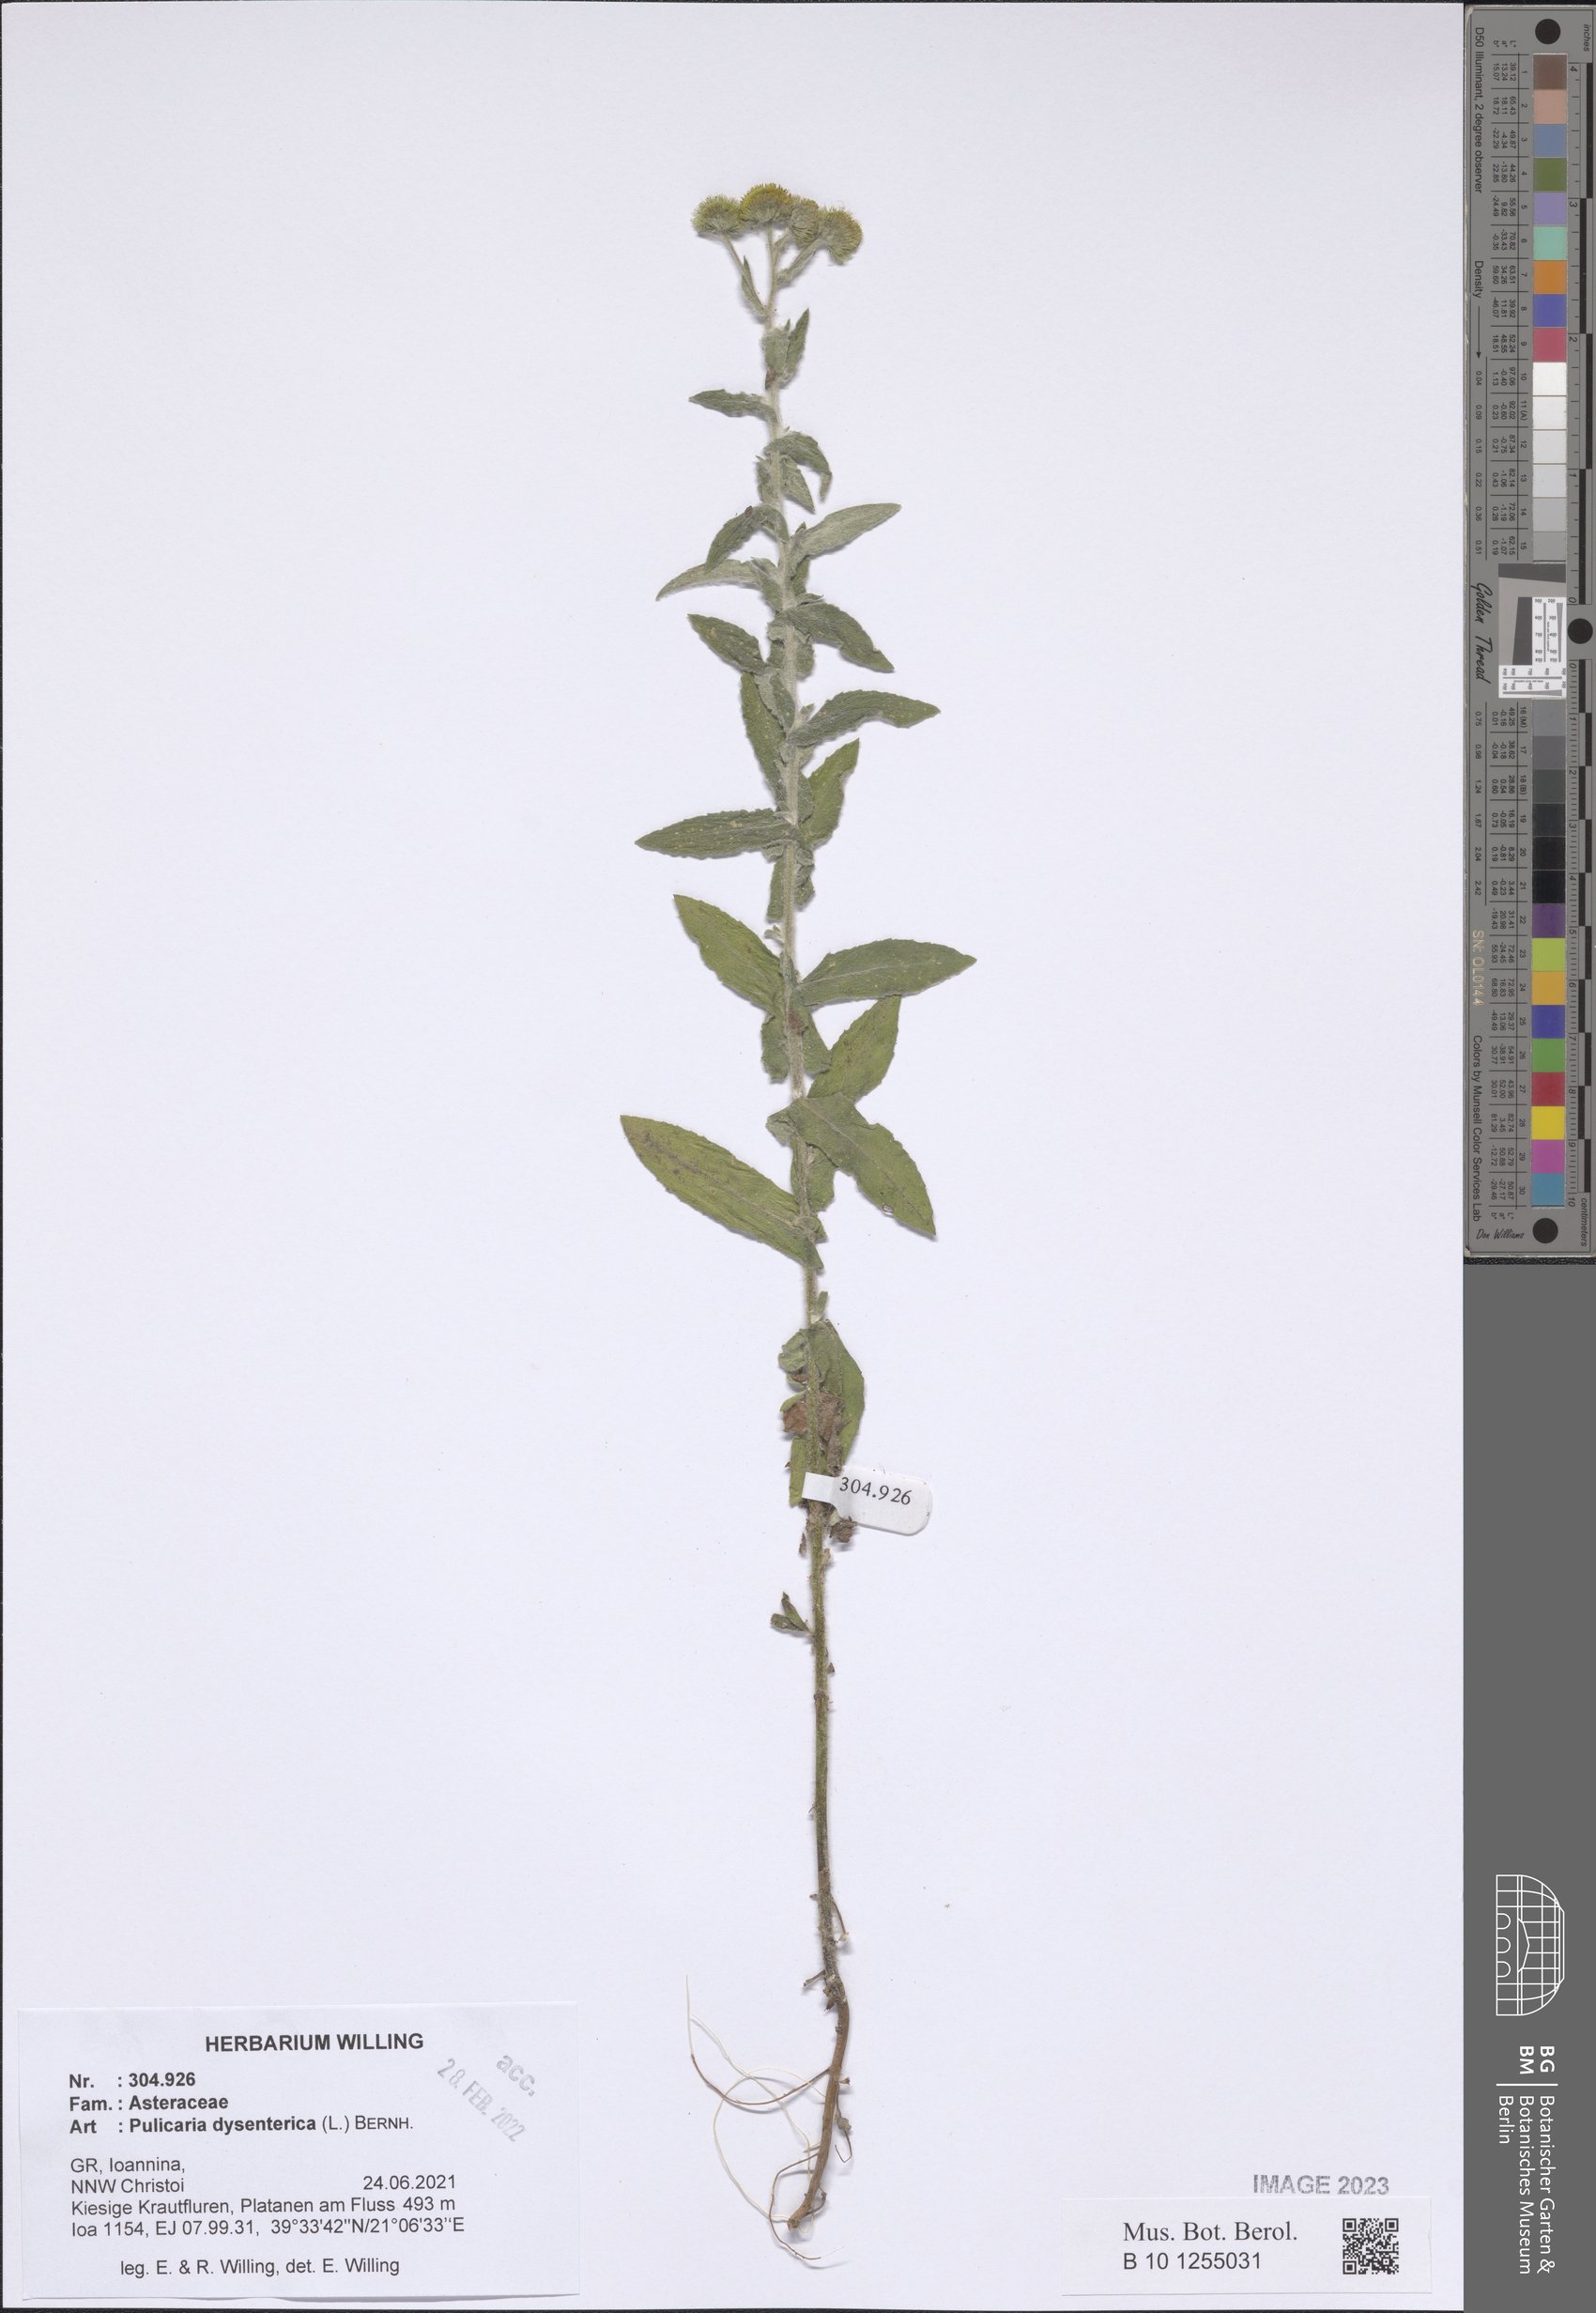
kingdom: Plantae
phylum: Tracheophyta
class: Magnoliopsida
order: Asterales
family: Asteraceae
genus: Pulicaria
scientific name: Pulicaria dysenterica
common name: Common fleabane
